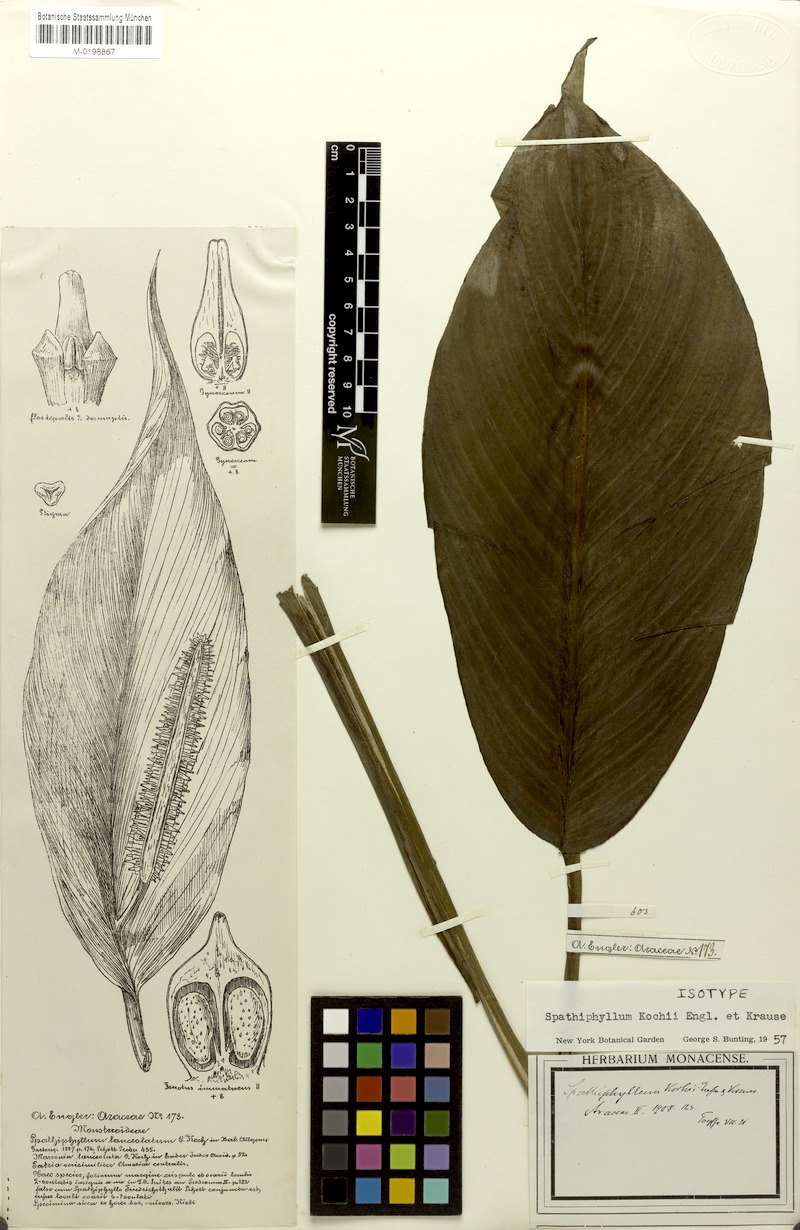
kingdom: Plantae
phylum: Tracheophyta
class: Liliopsida
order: Alismatales
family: Araceae
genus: Spathiphyllum
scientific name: Spathiphyllum lanceifolium
